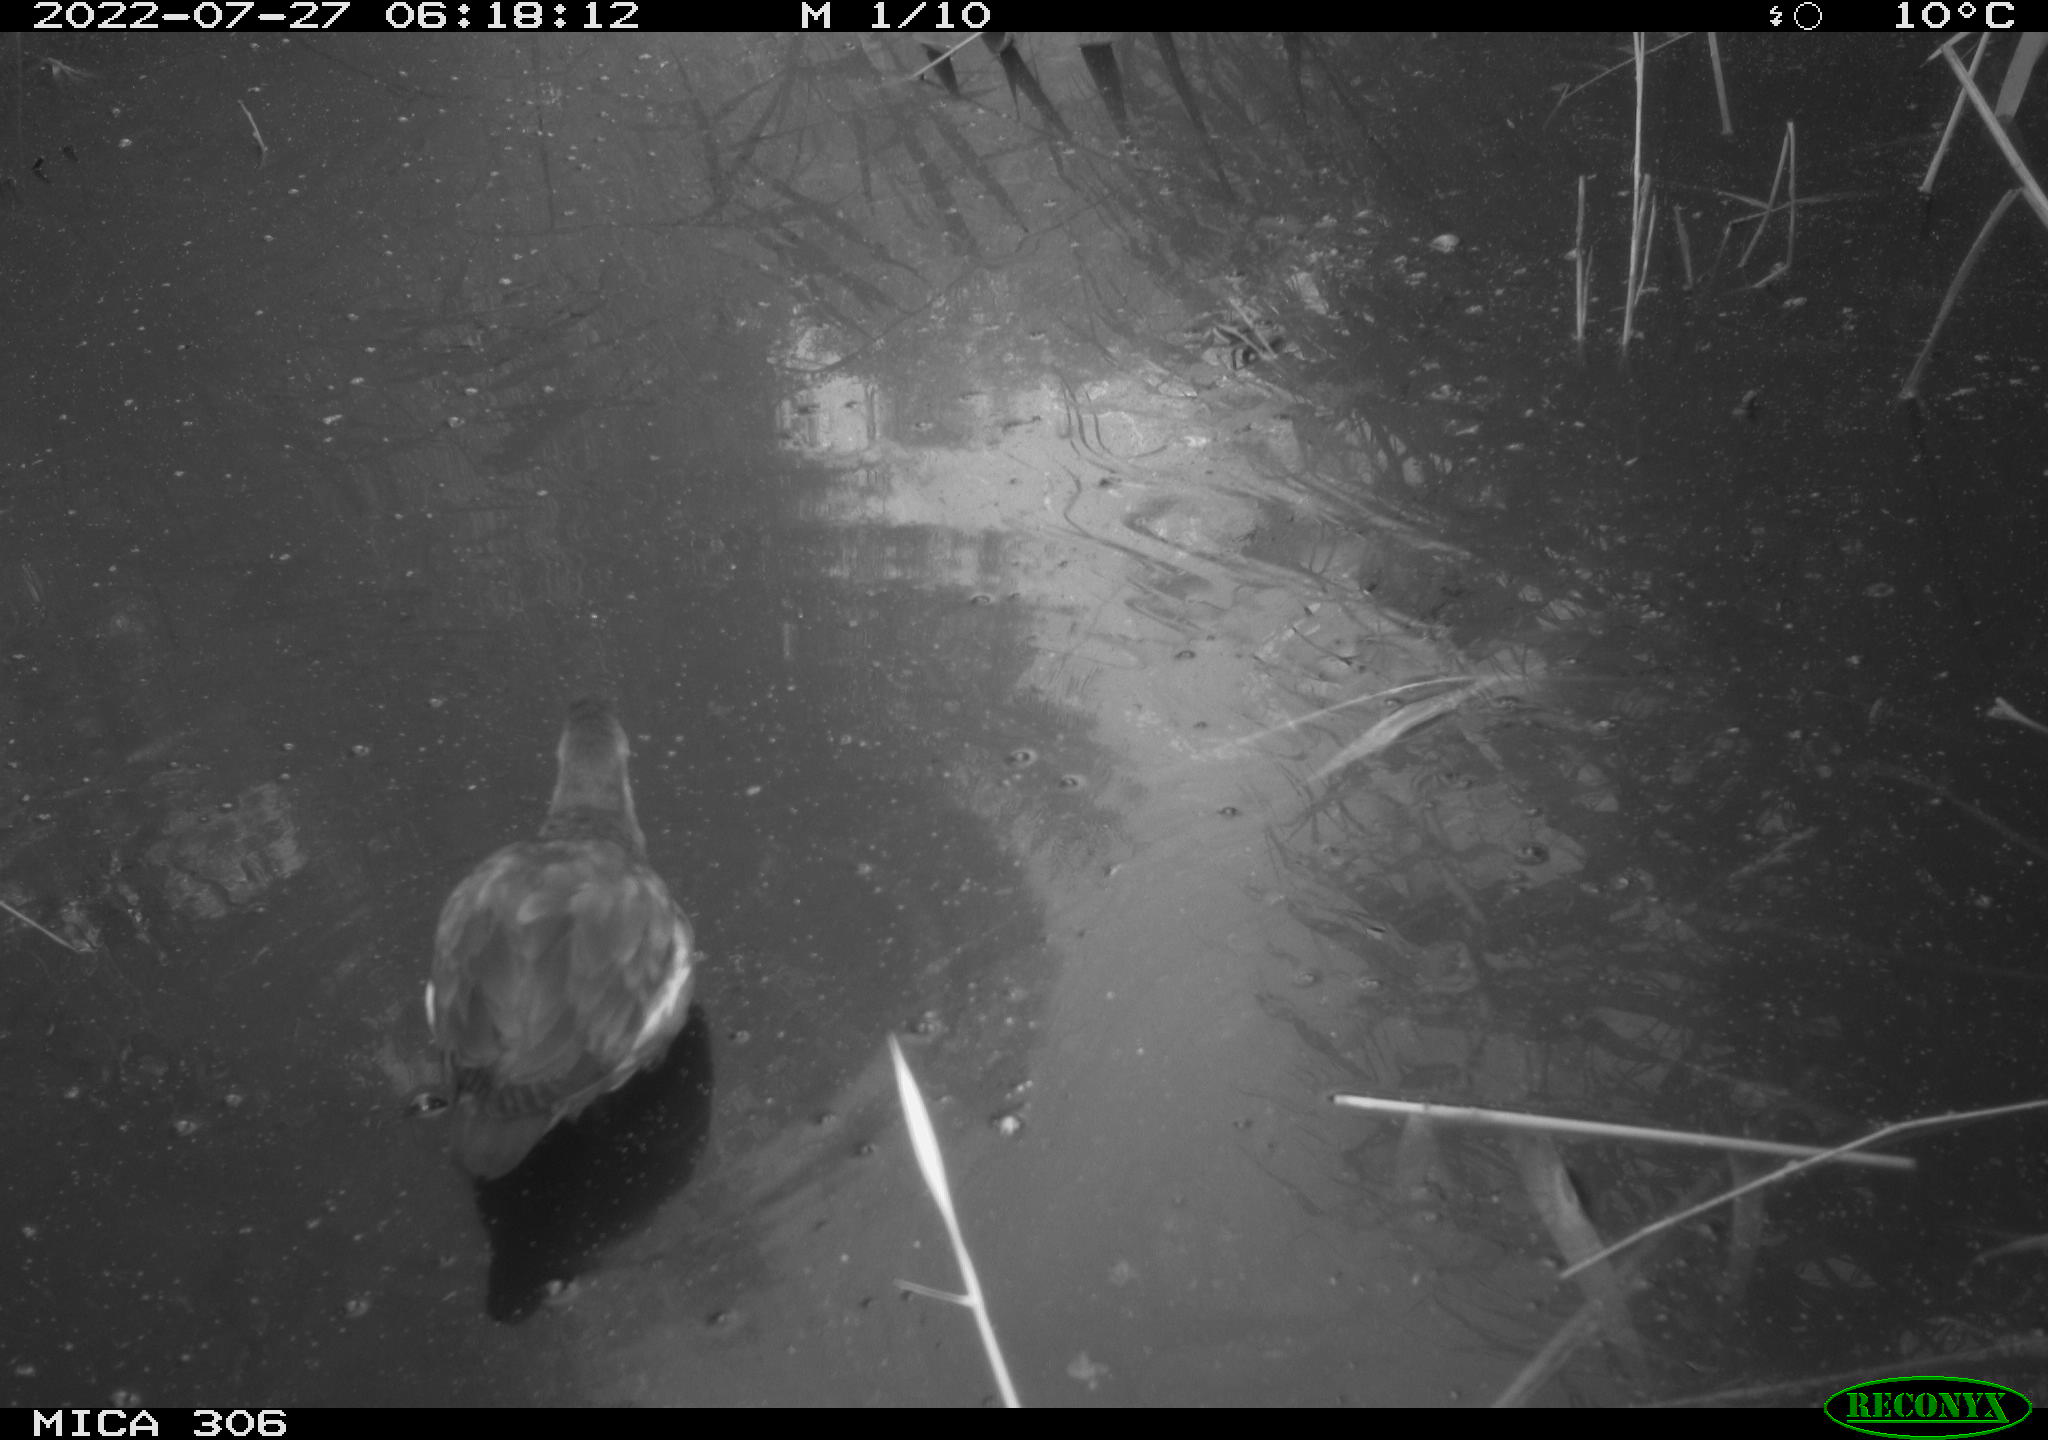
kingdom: Animalia
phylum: Chordata
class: Aves
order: Gruiformes
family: Rallidae
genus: Gallinula
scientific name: Gallinula chloropus
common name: Common moorhen
